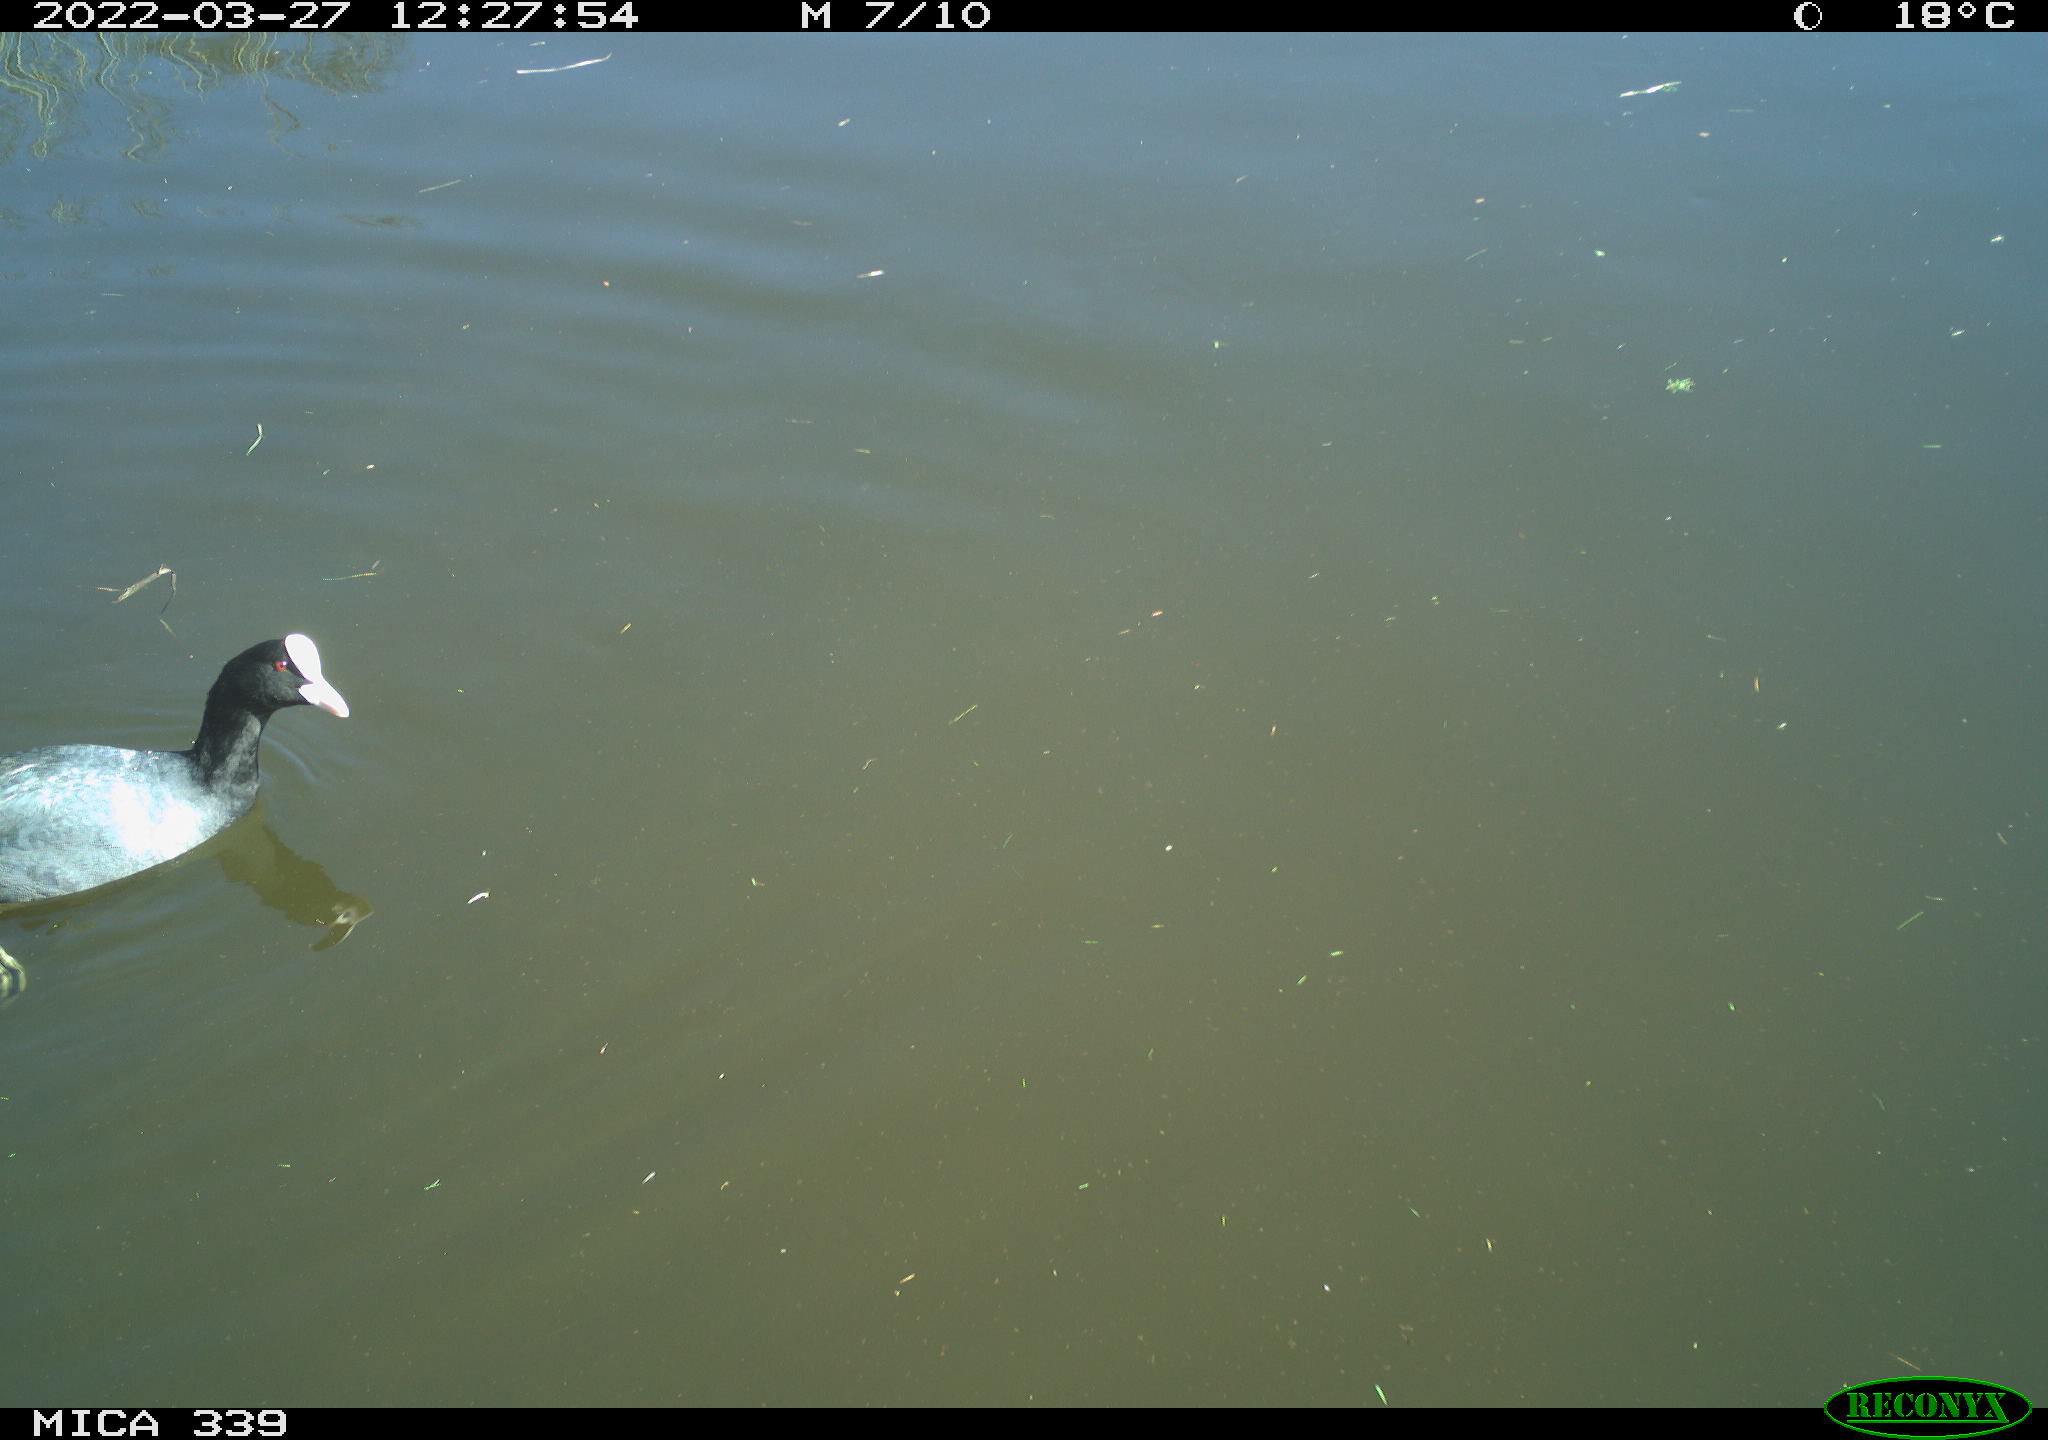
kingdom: Animalia
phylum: Chordata
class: Aves
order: Gruiformes
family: Rallidae
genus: Fulica
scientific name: Fulica atra
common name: Eurasian coot
